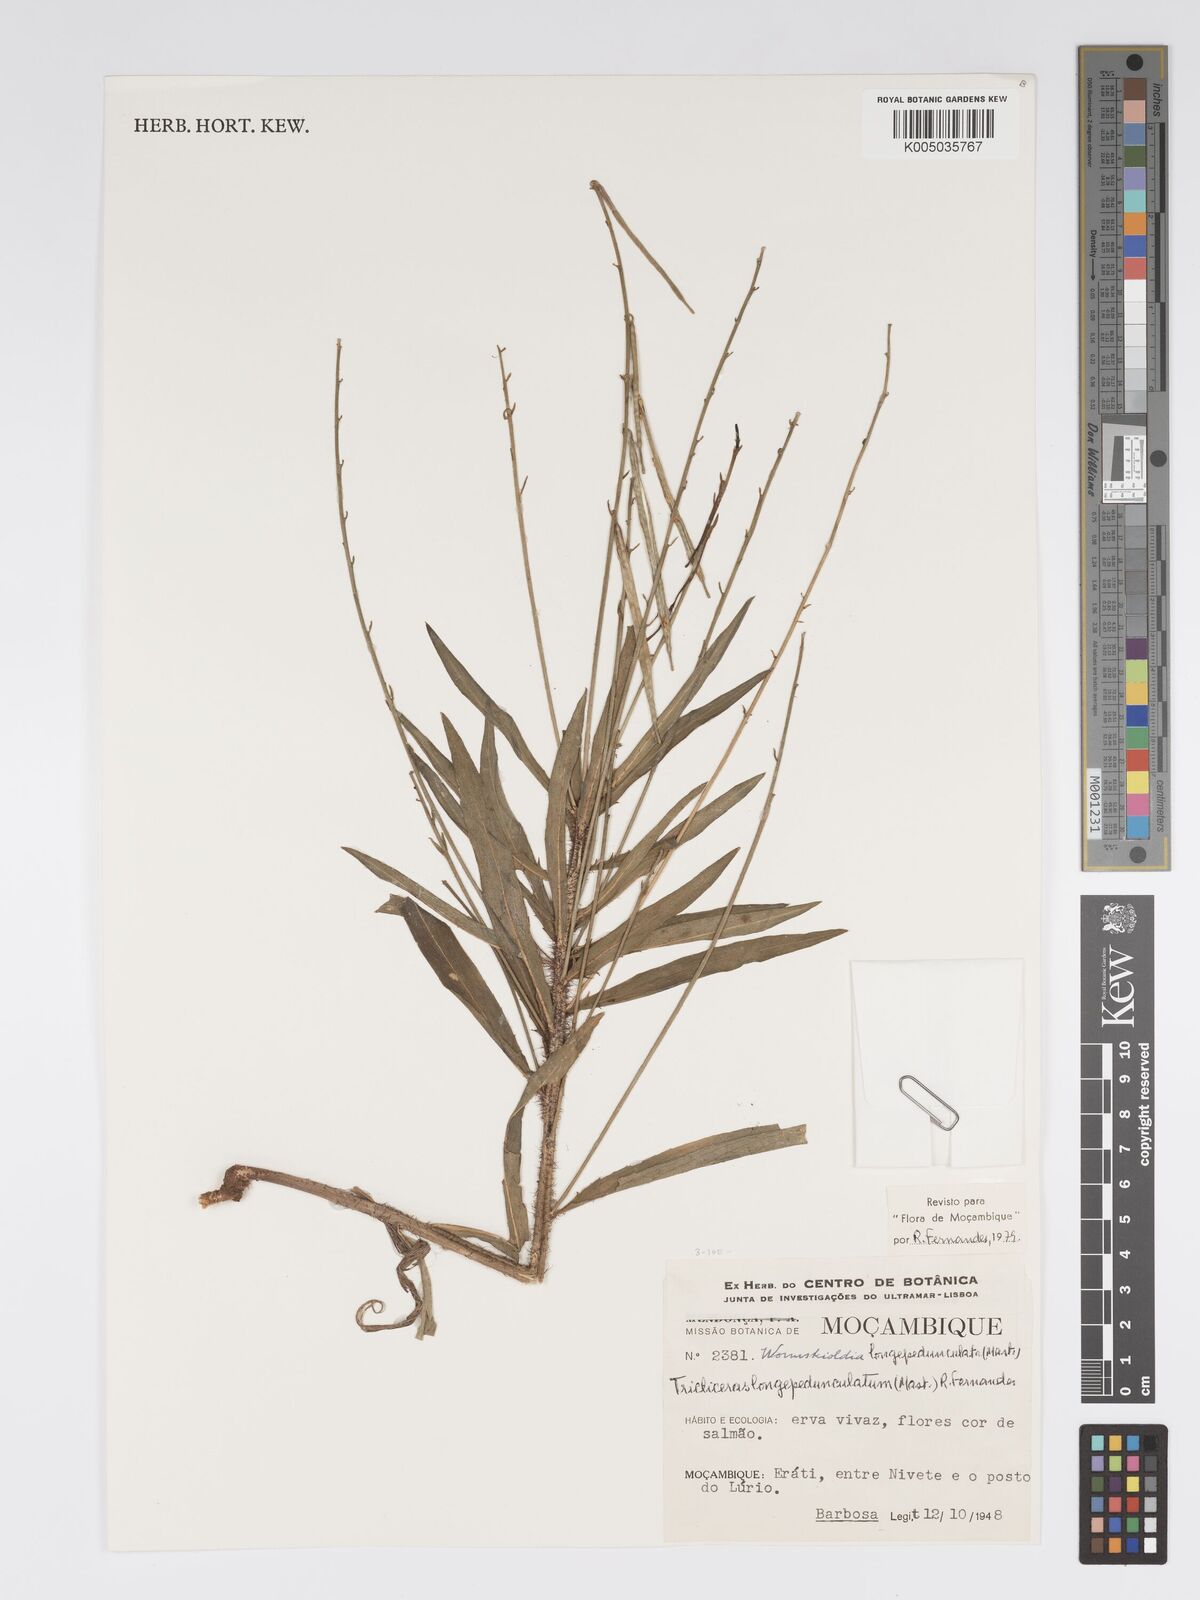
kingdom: Plantae
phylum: Tracheophyta
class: Magnoliopsida
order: Malpighiales
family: Turneraceae
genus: Tricliceras
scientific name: Tricliceras longepedunculatum
